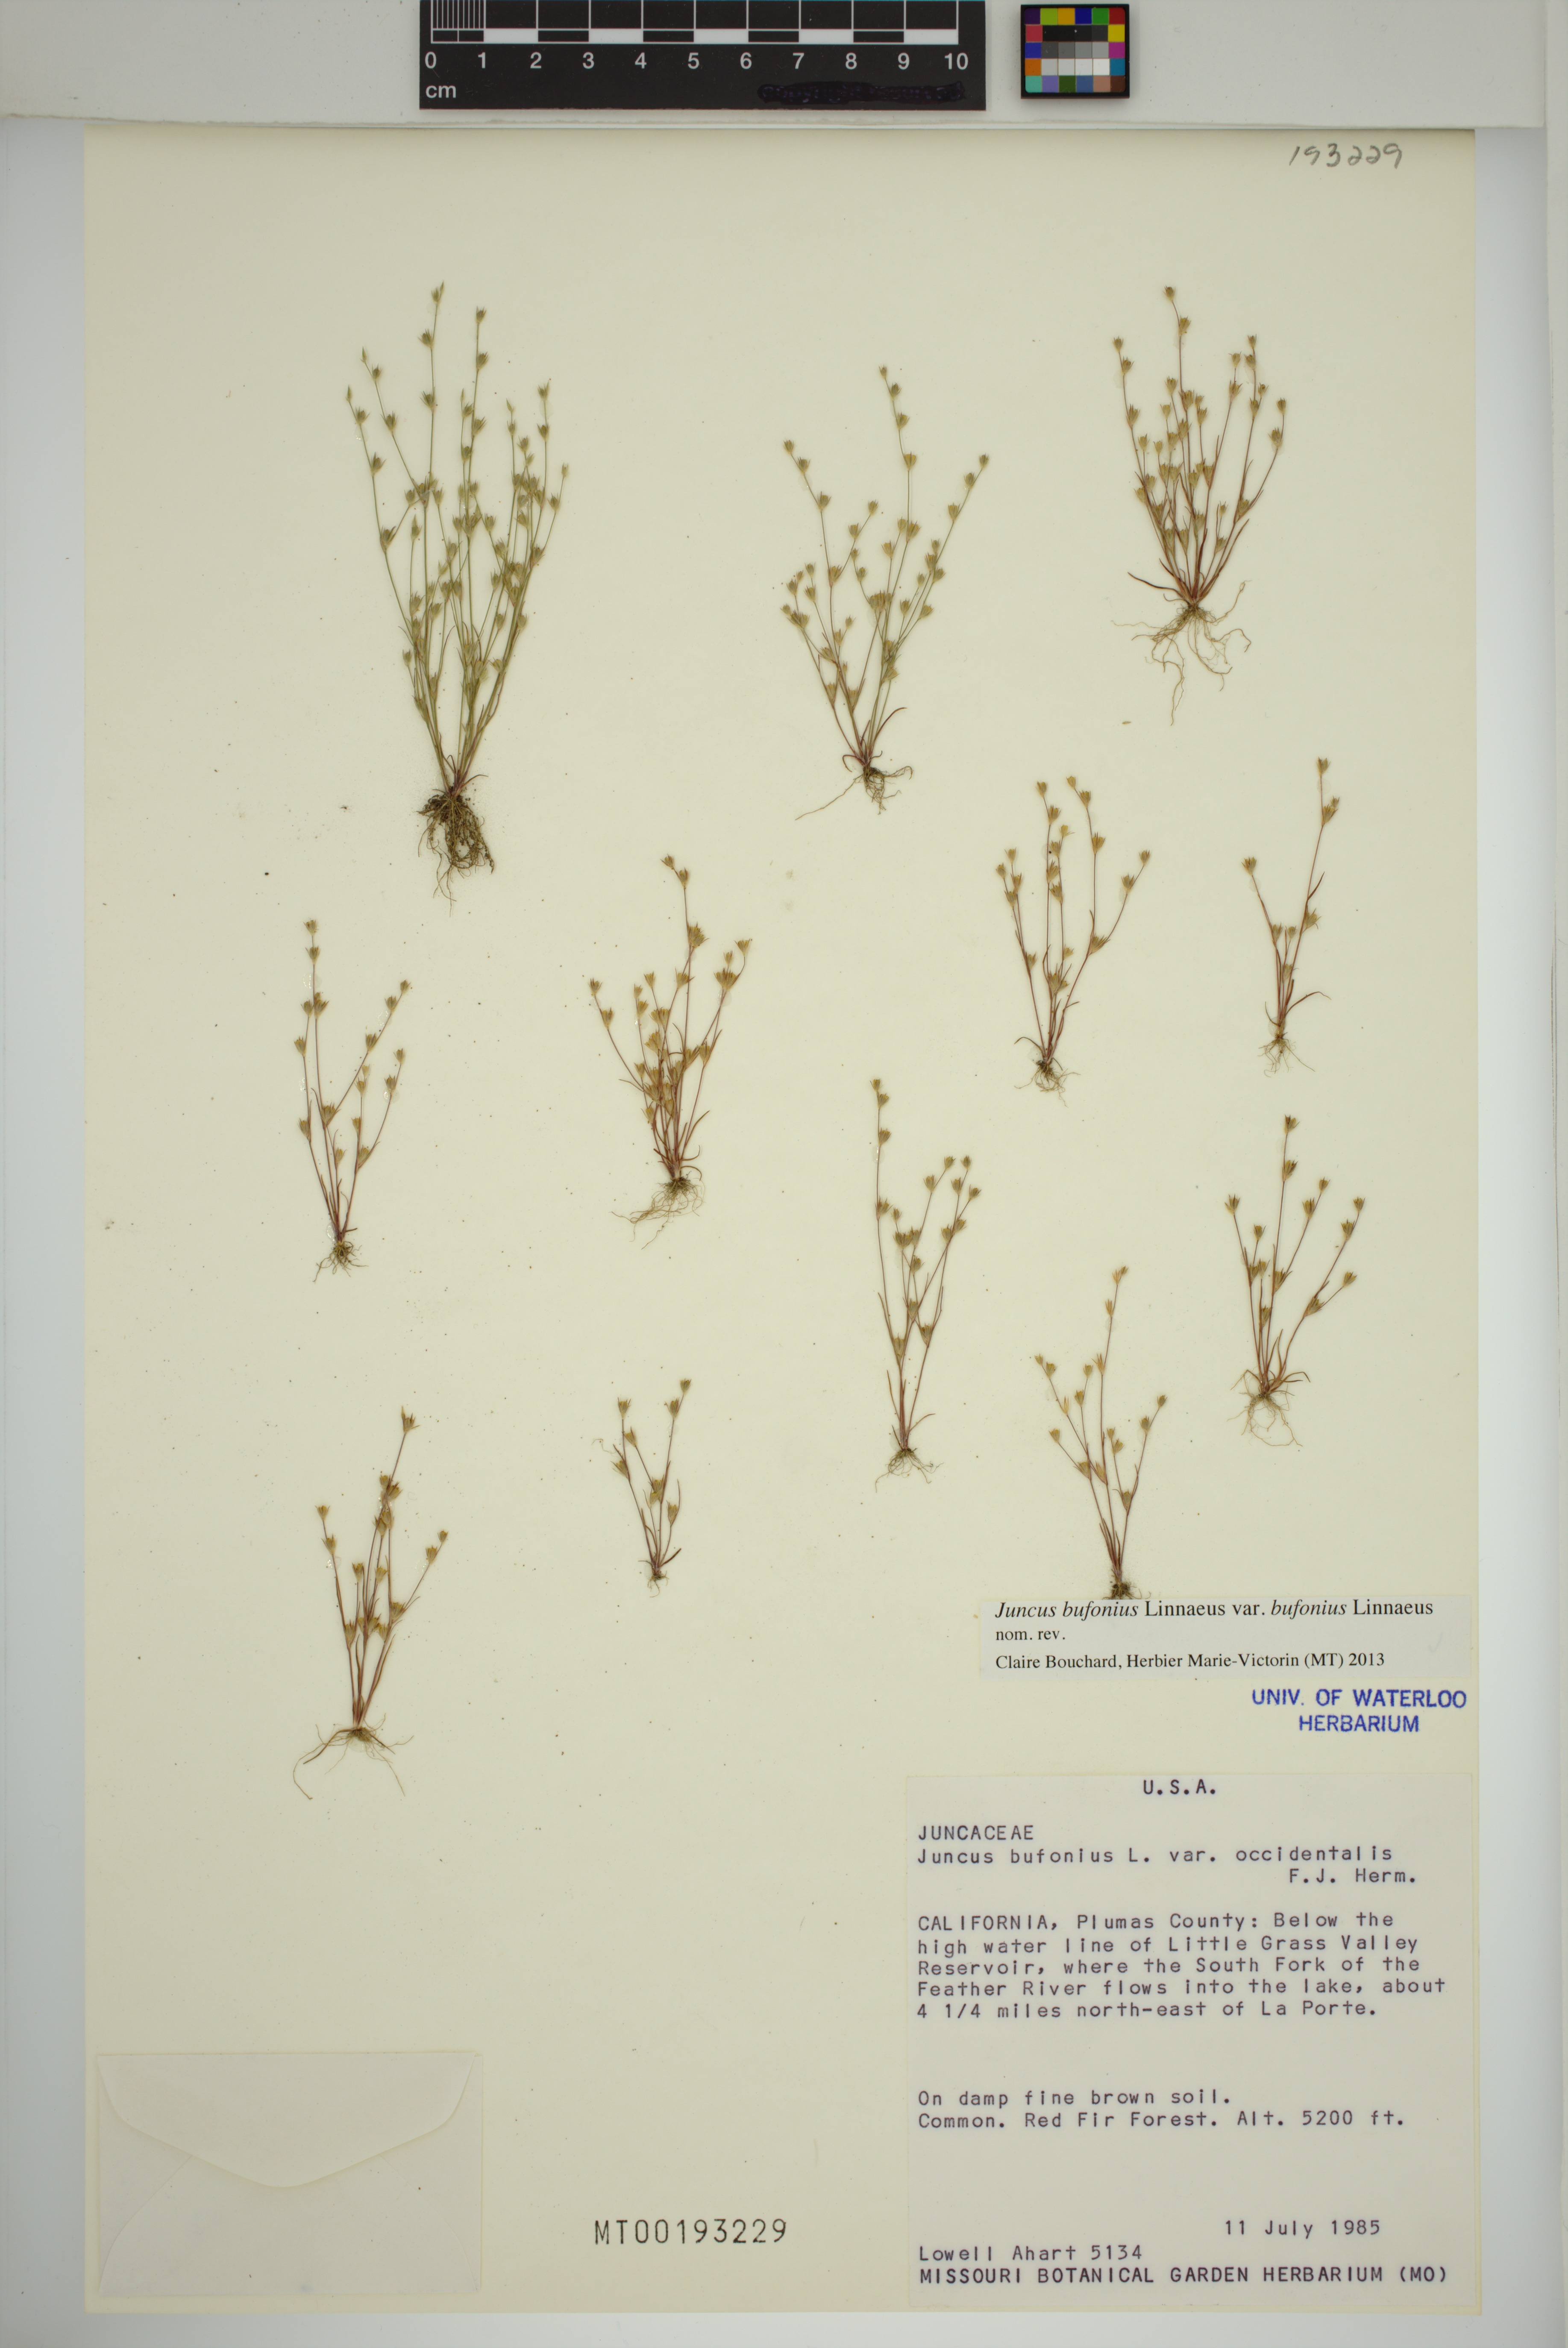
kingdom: Plantae
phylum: Tracheophyta
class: Liliopsida
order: Poales
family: Juncaceae
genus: Juncus
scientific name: Juncus amuricus
